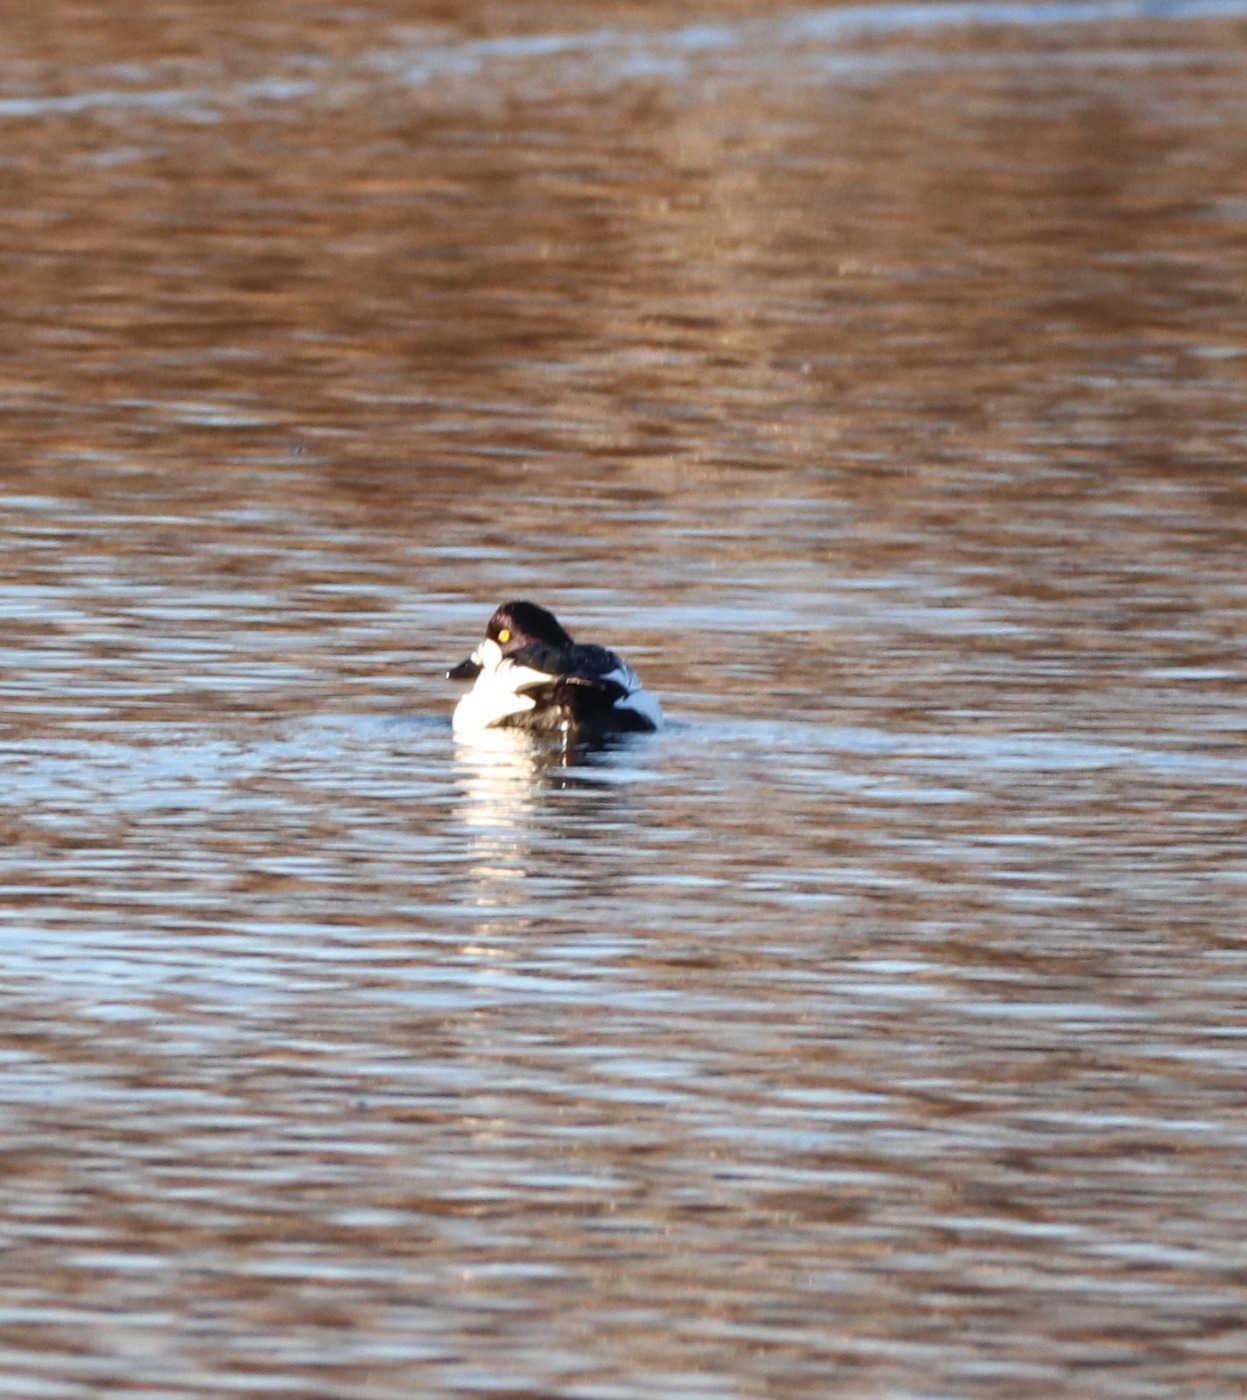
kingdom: Animalia
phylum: Chordata
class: Aves
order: Anseriformes
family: Anatidae
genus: Bucephala
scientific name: Bucephala clangula
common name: Hvinand
